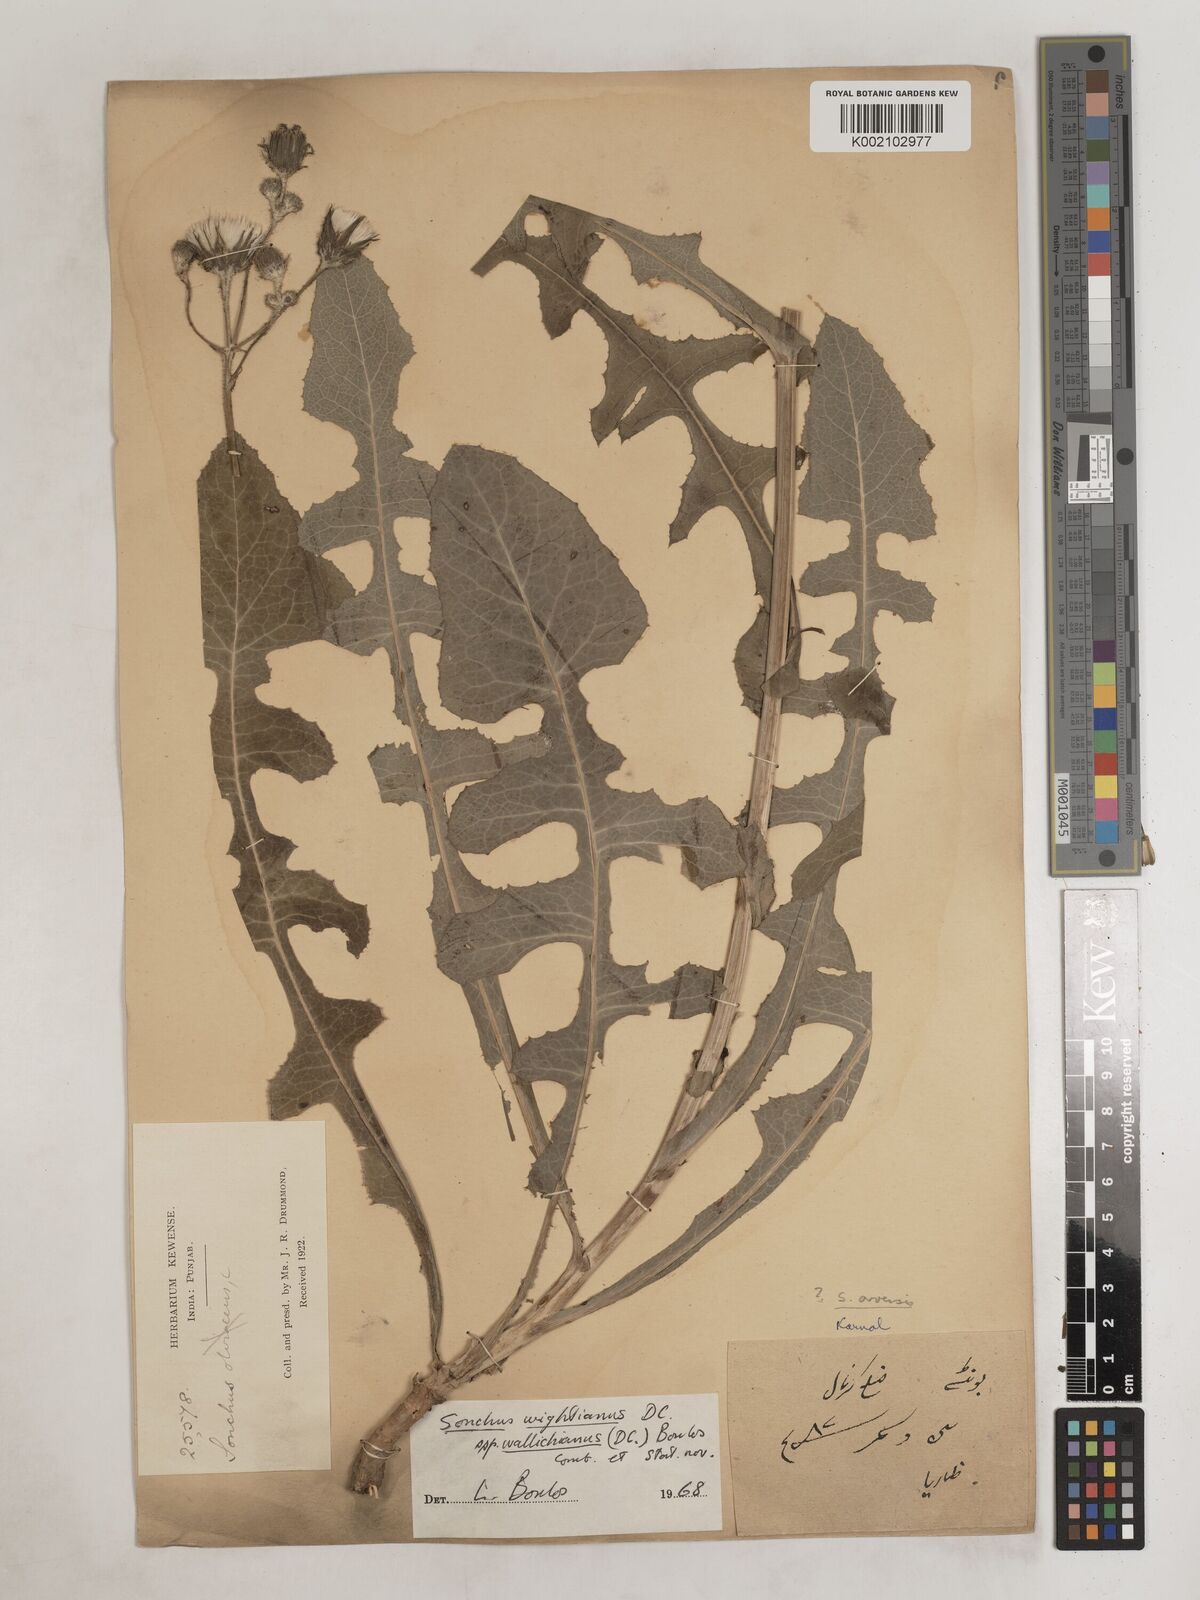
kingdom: Plantae
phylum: Tracheophyta
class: Magnoliopsida
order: Asterales
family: Asteraceae
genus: Sonchus
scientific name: Sonchus
